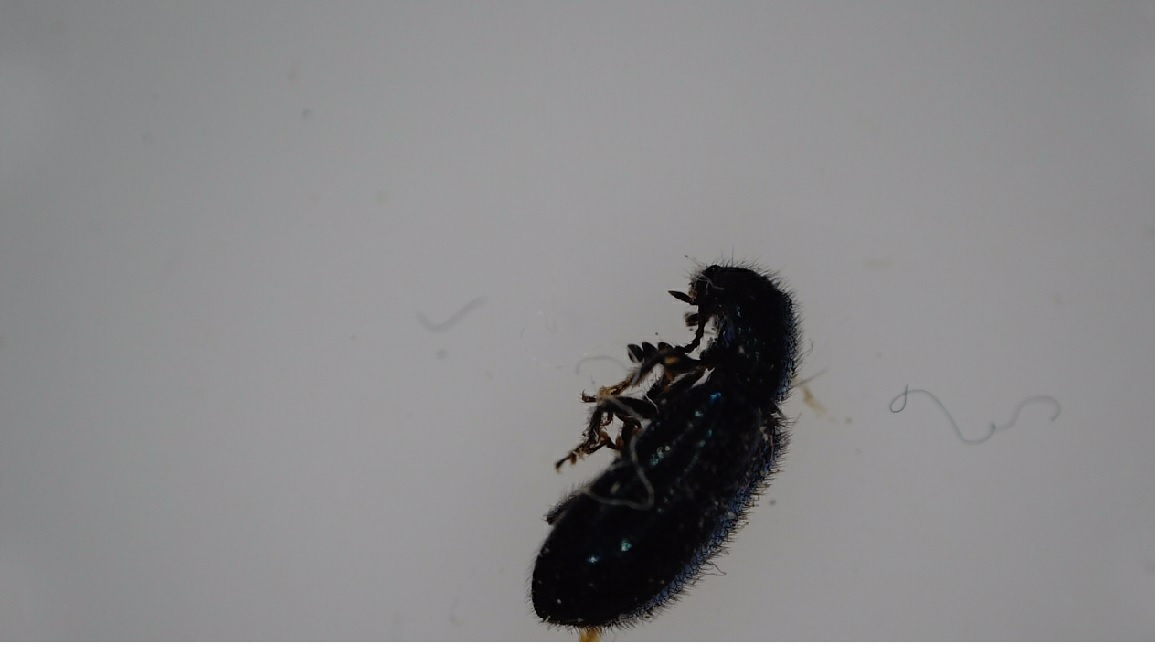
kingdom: Animalia
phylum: Arthropoda
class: Insecta
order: Coleoptera
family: Cleridae
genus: Necrobia
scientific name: Necrobia violacea
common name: Blå koprabille
